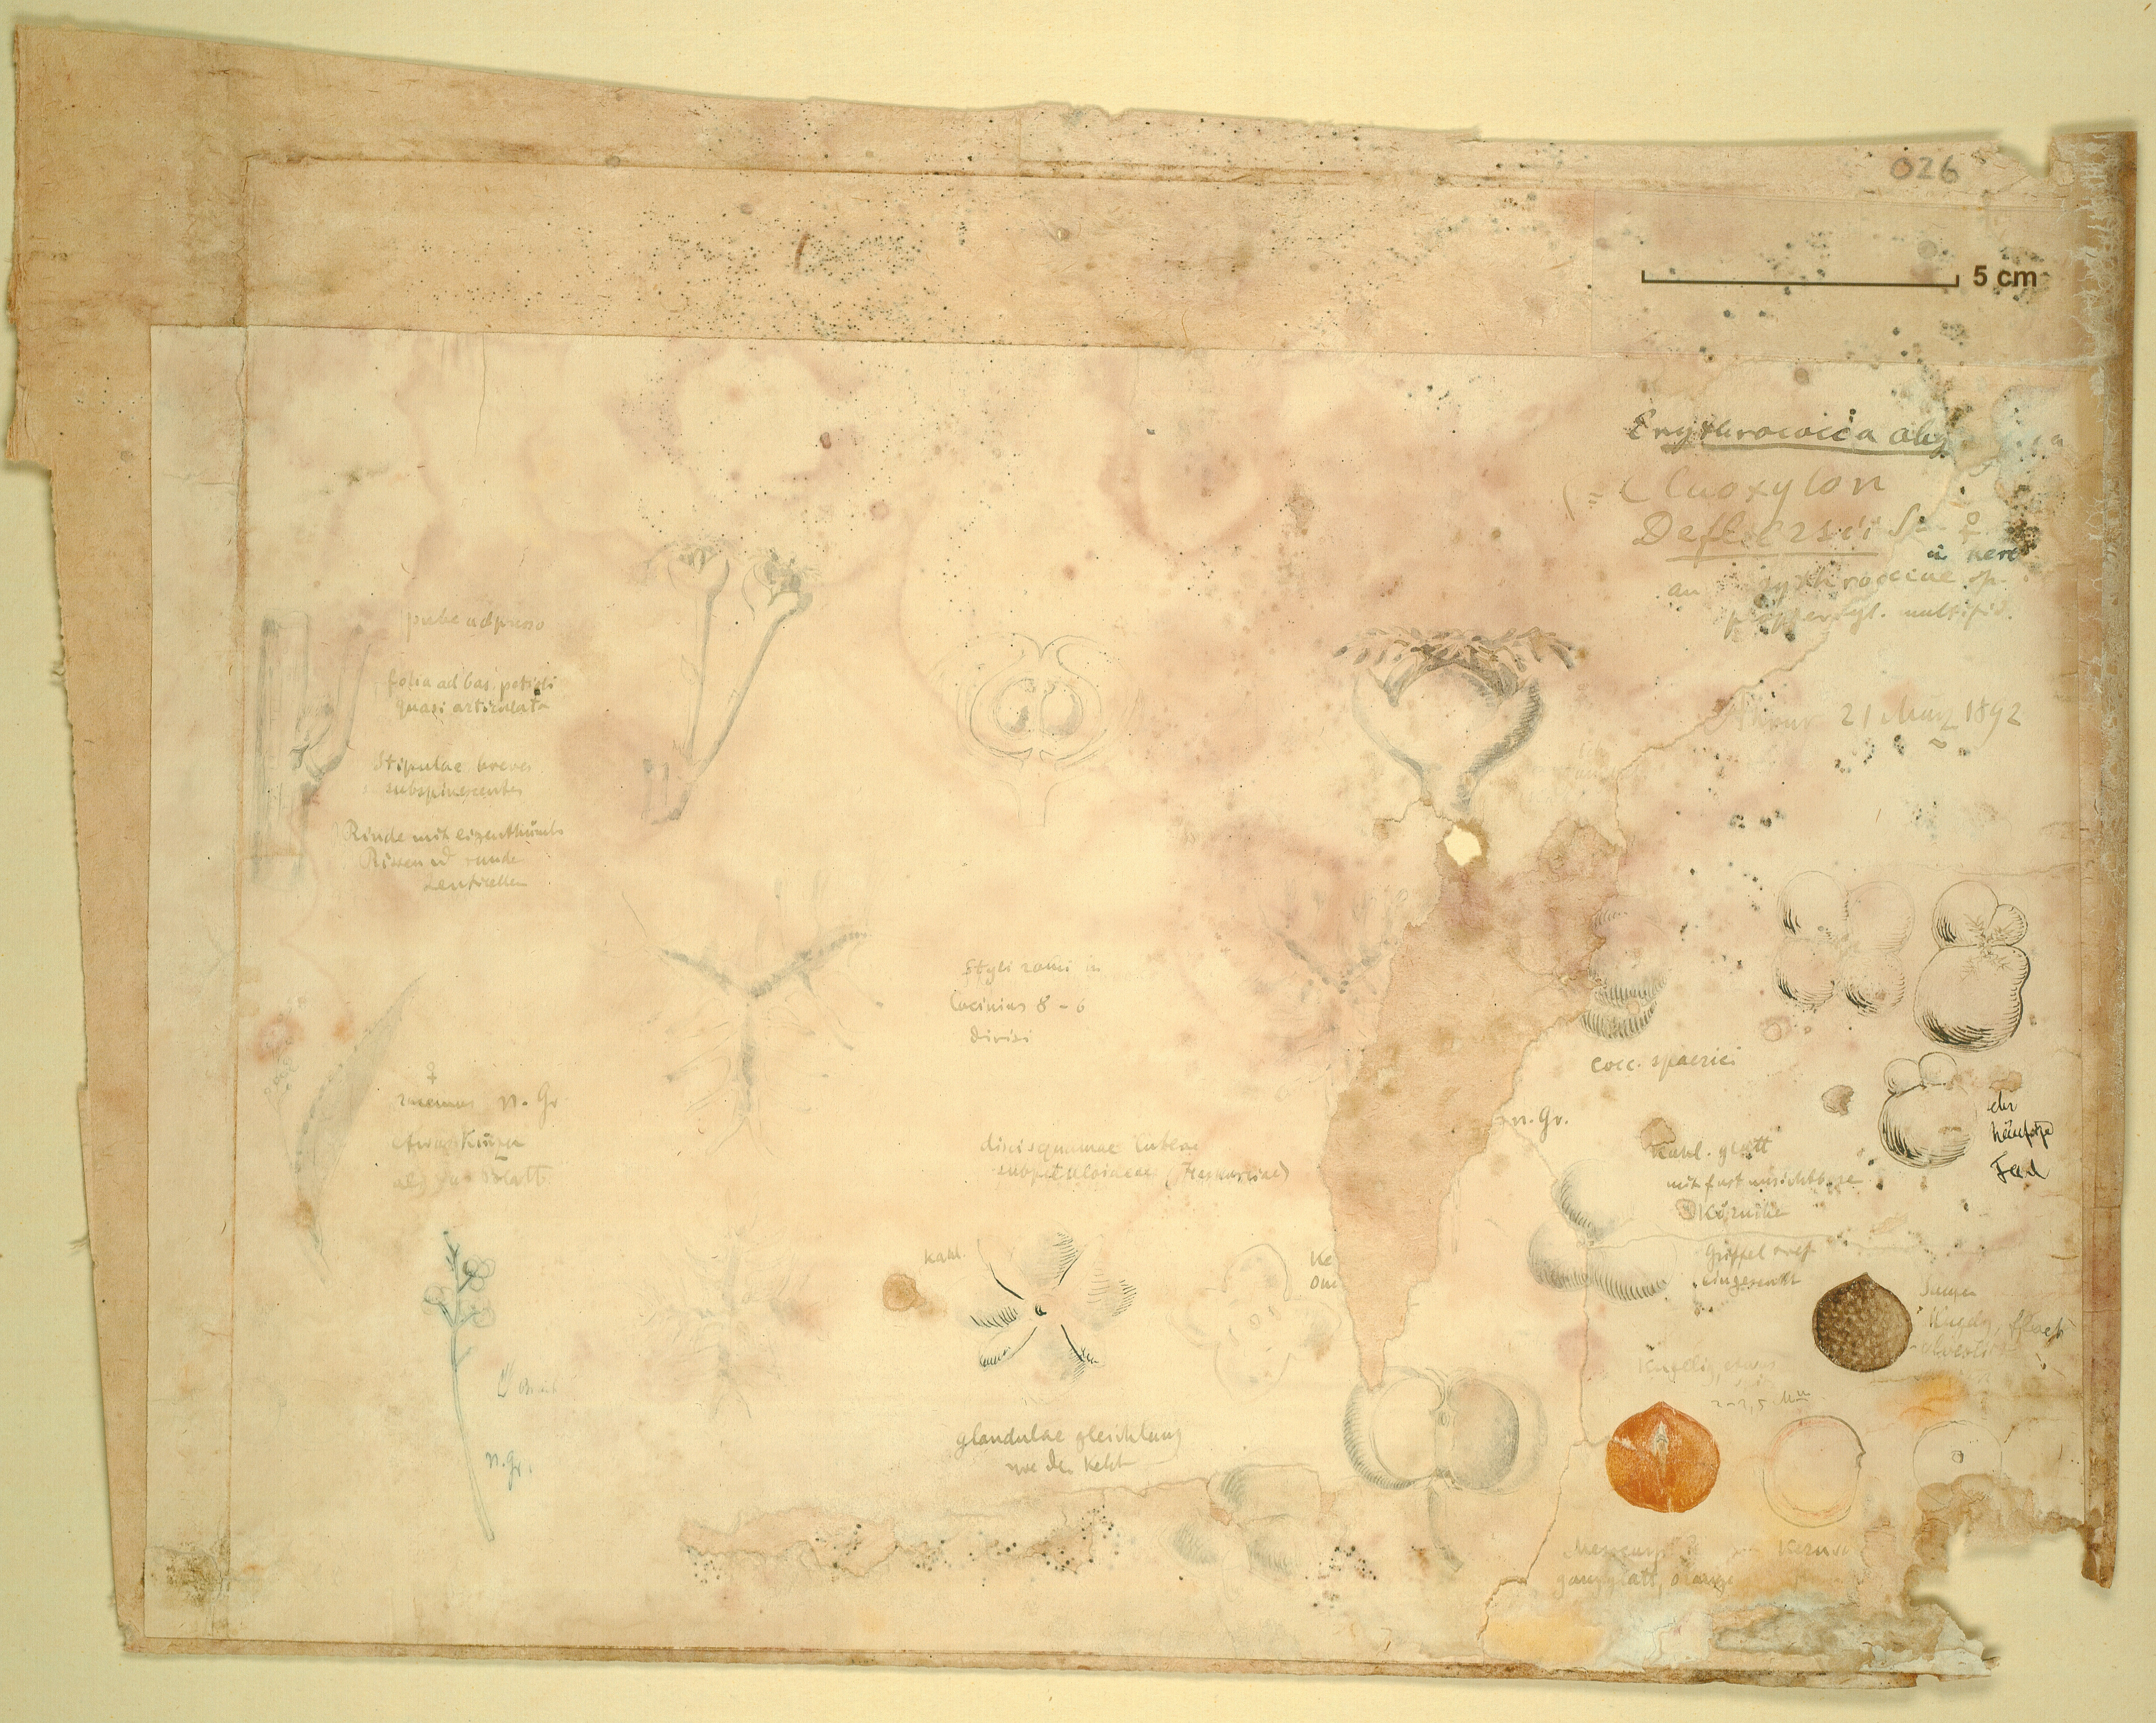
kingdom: Plantae
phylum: Tracheophyta
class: Magnoliopsida
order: Malpighiales
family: Euphorbiaceae
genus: Erythrococca
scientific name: Erythrococca abyssinica
